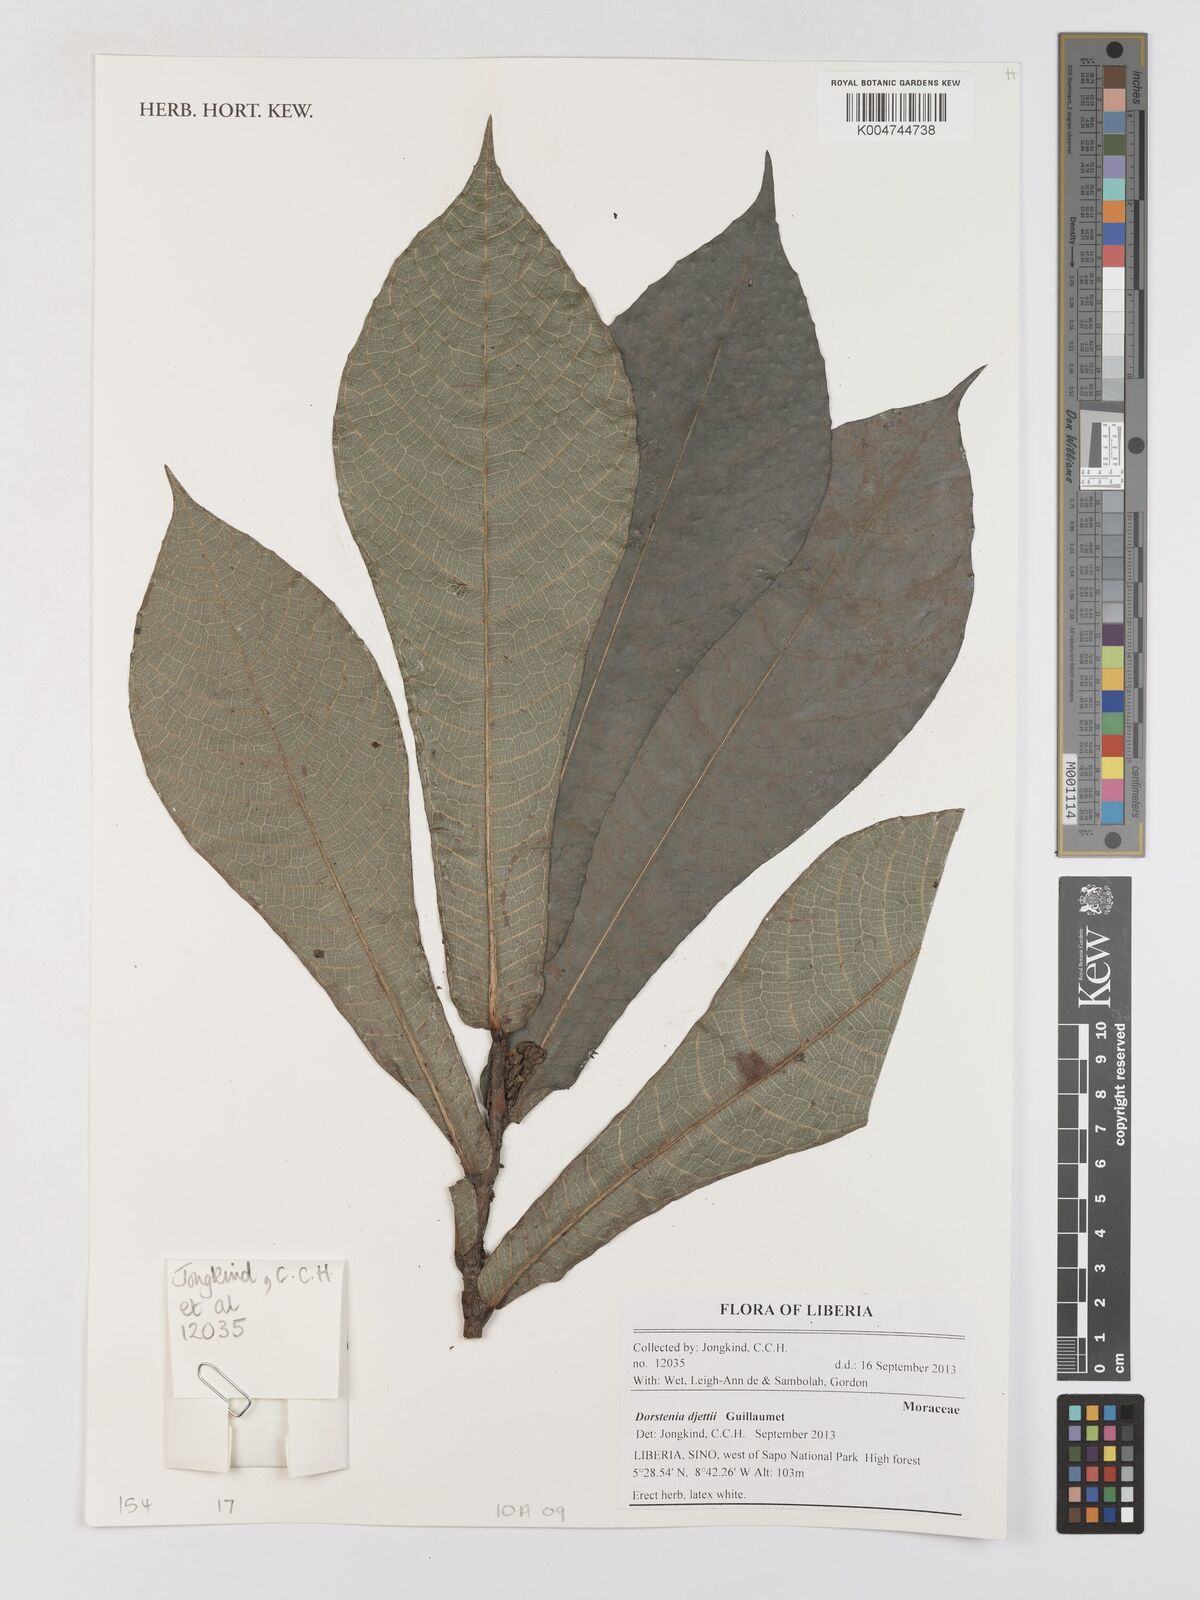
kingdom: Plantae
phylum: Tracheophyta
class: Magnoliopsida
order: Rosales
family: Moraceae
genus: Dorstenia
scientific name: Dorstenia djettii
